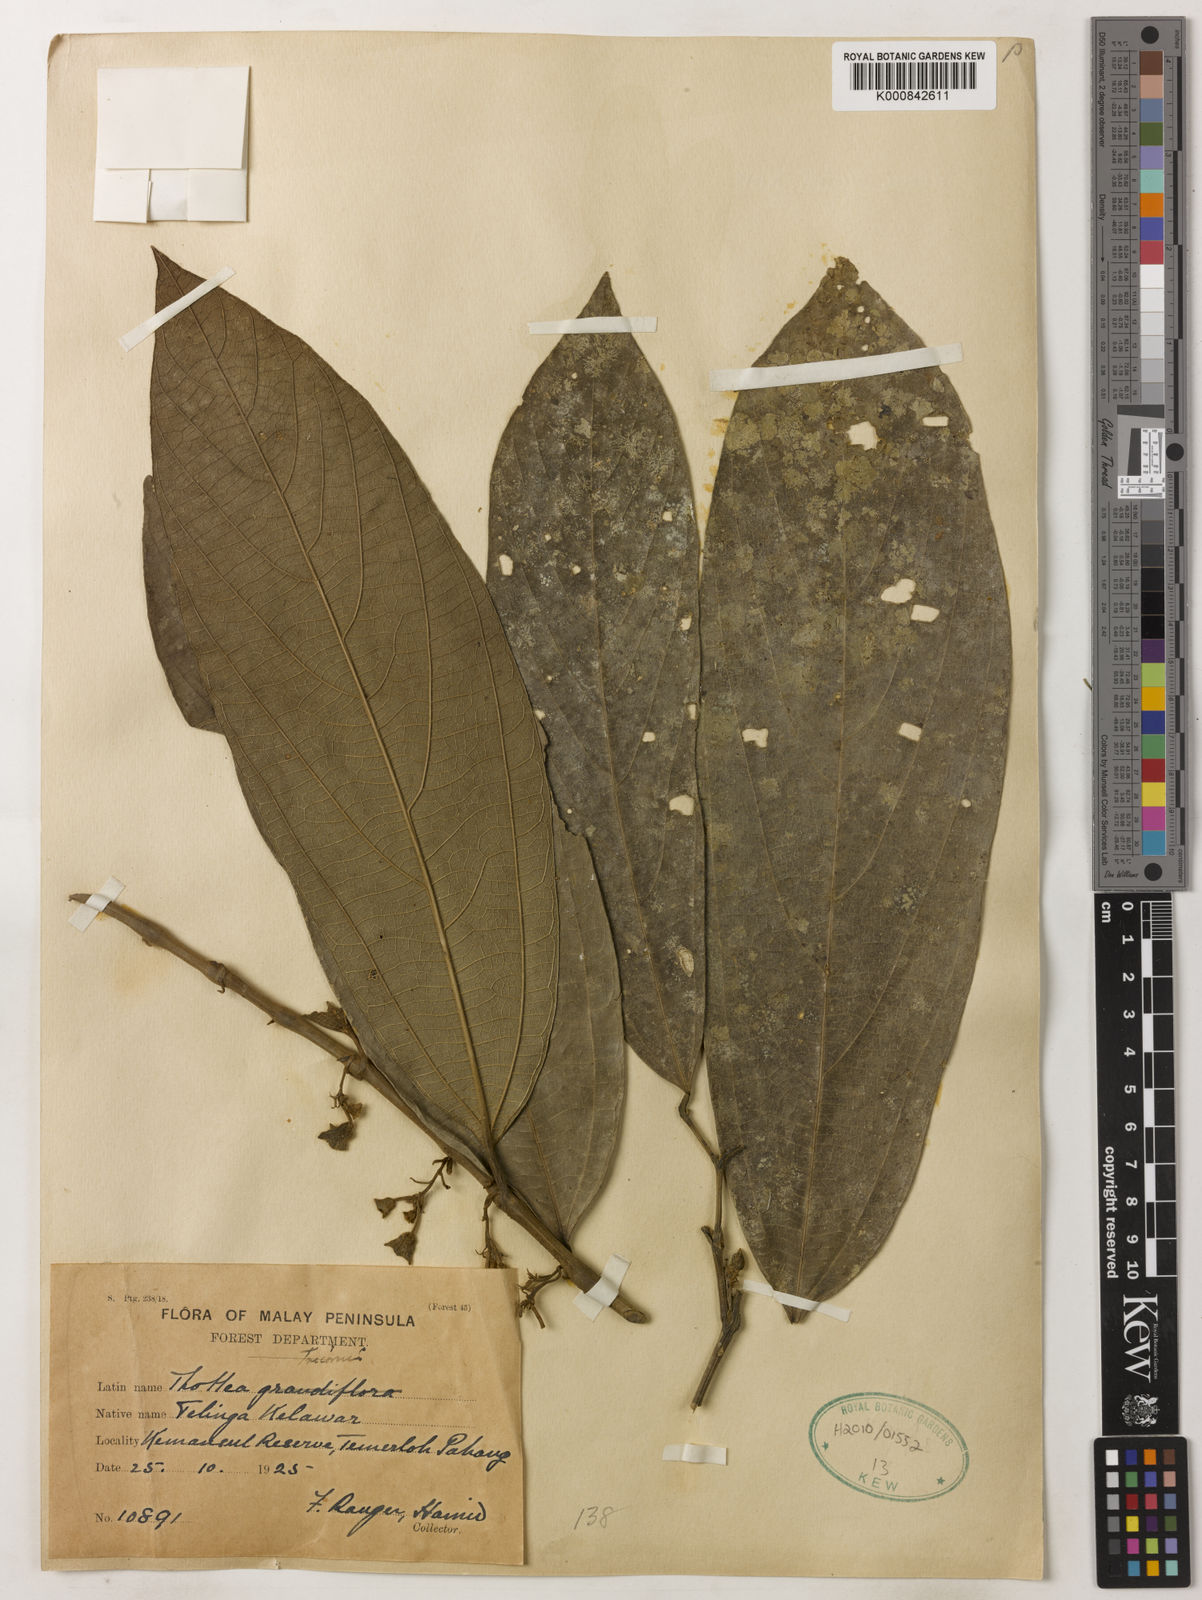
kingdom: Plantae
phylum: Tracheophyta
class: Magnoliopsida
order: Piperales
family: Aristolochiaceae
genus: Thottea
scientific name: Thottea tricornis
